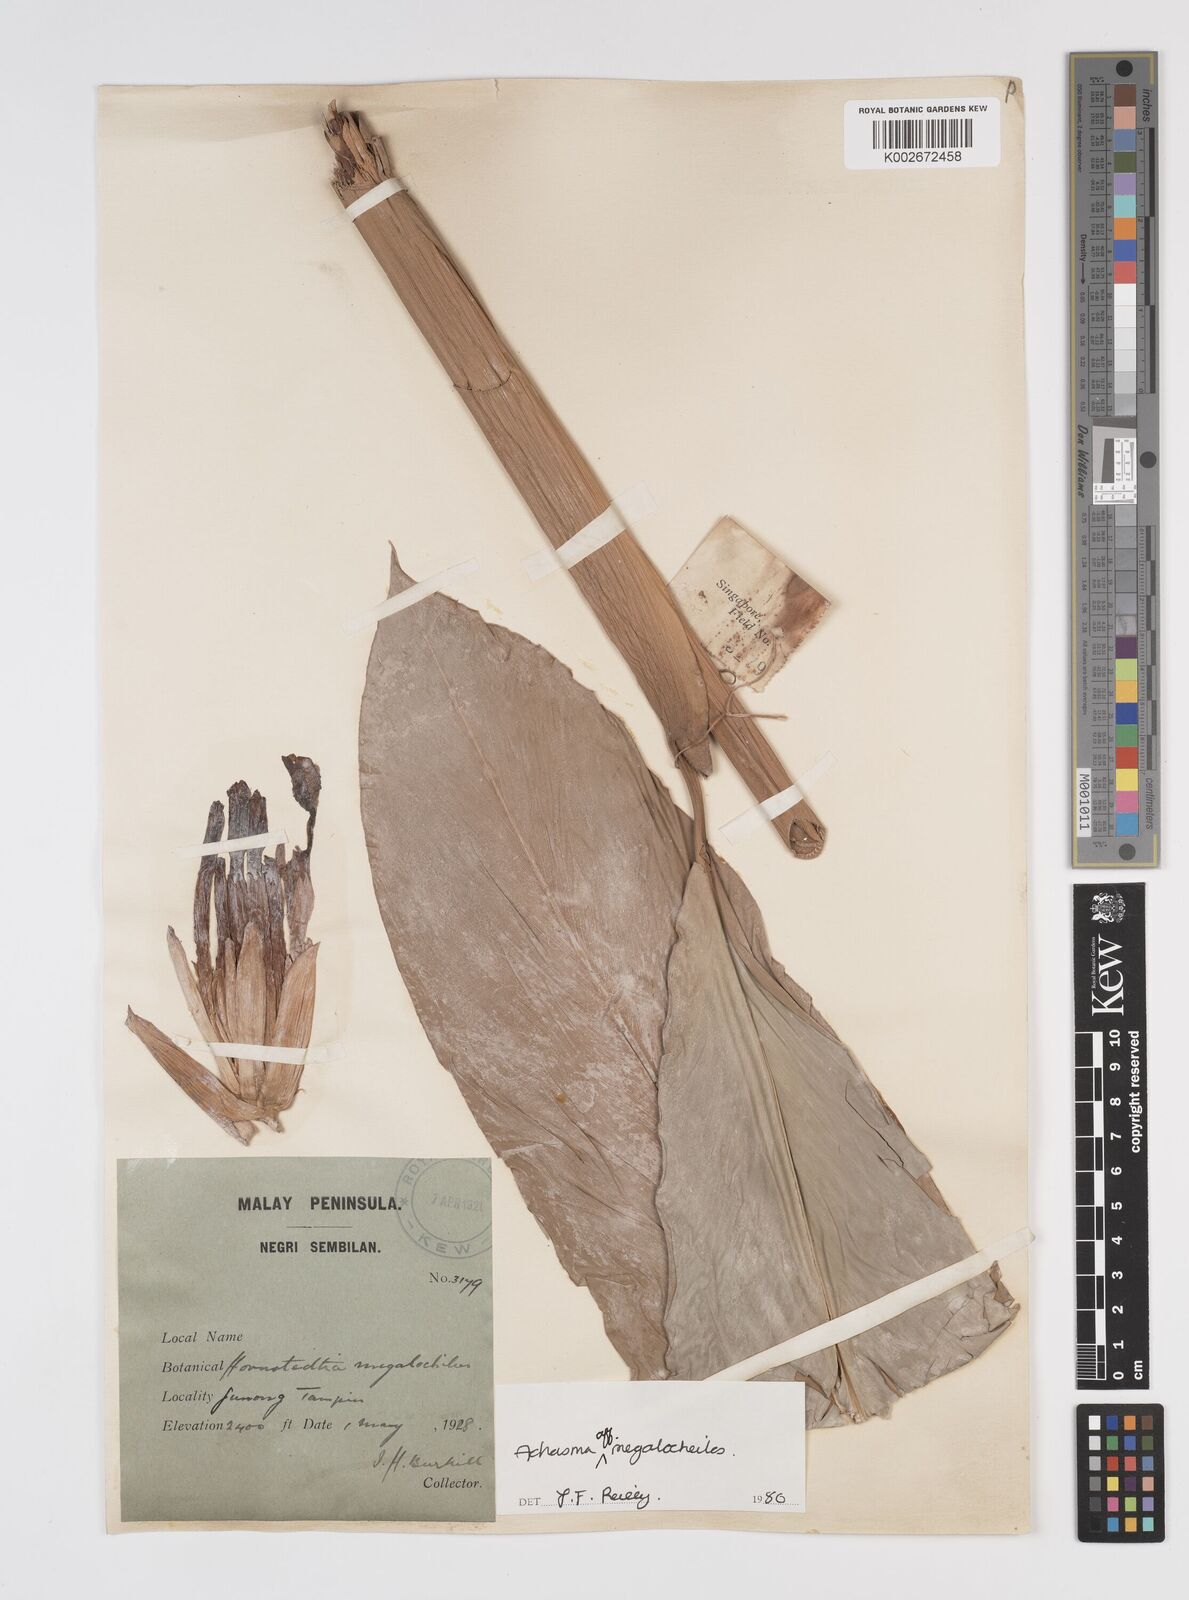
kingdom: Plantae
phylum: Tracheophyta
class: Liliopsida
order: Zingiberales
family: Zingiberaceae
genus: Etlingera
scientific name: Etlingera littoralis
